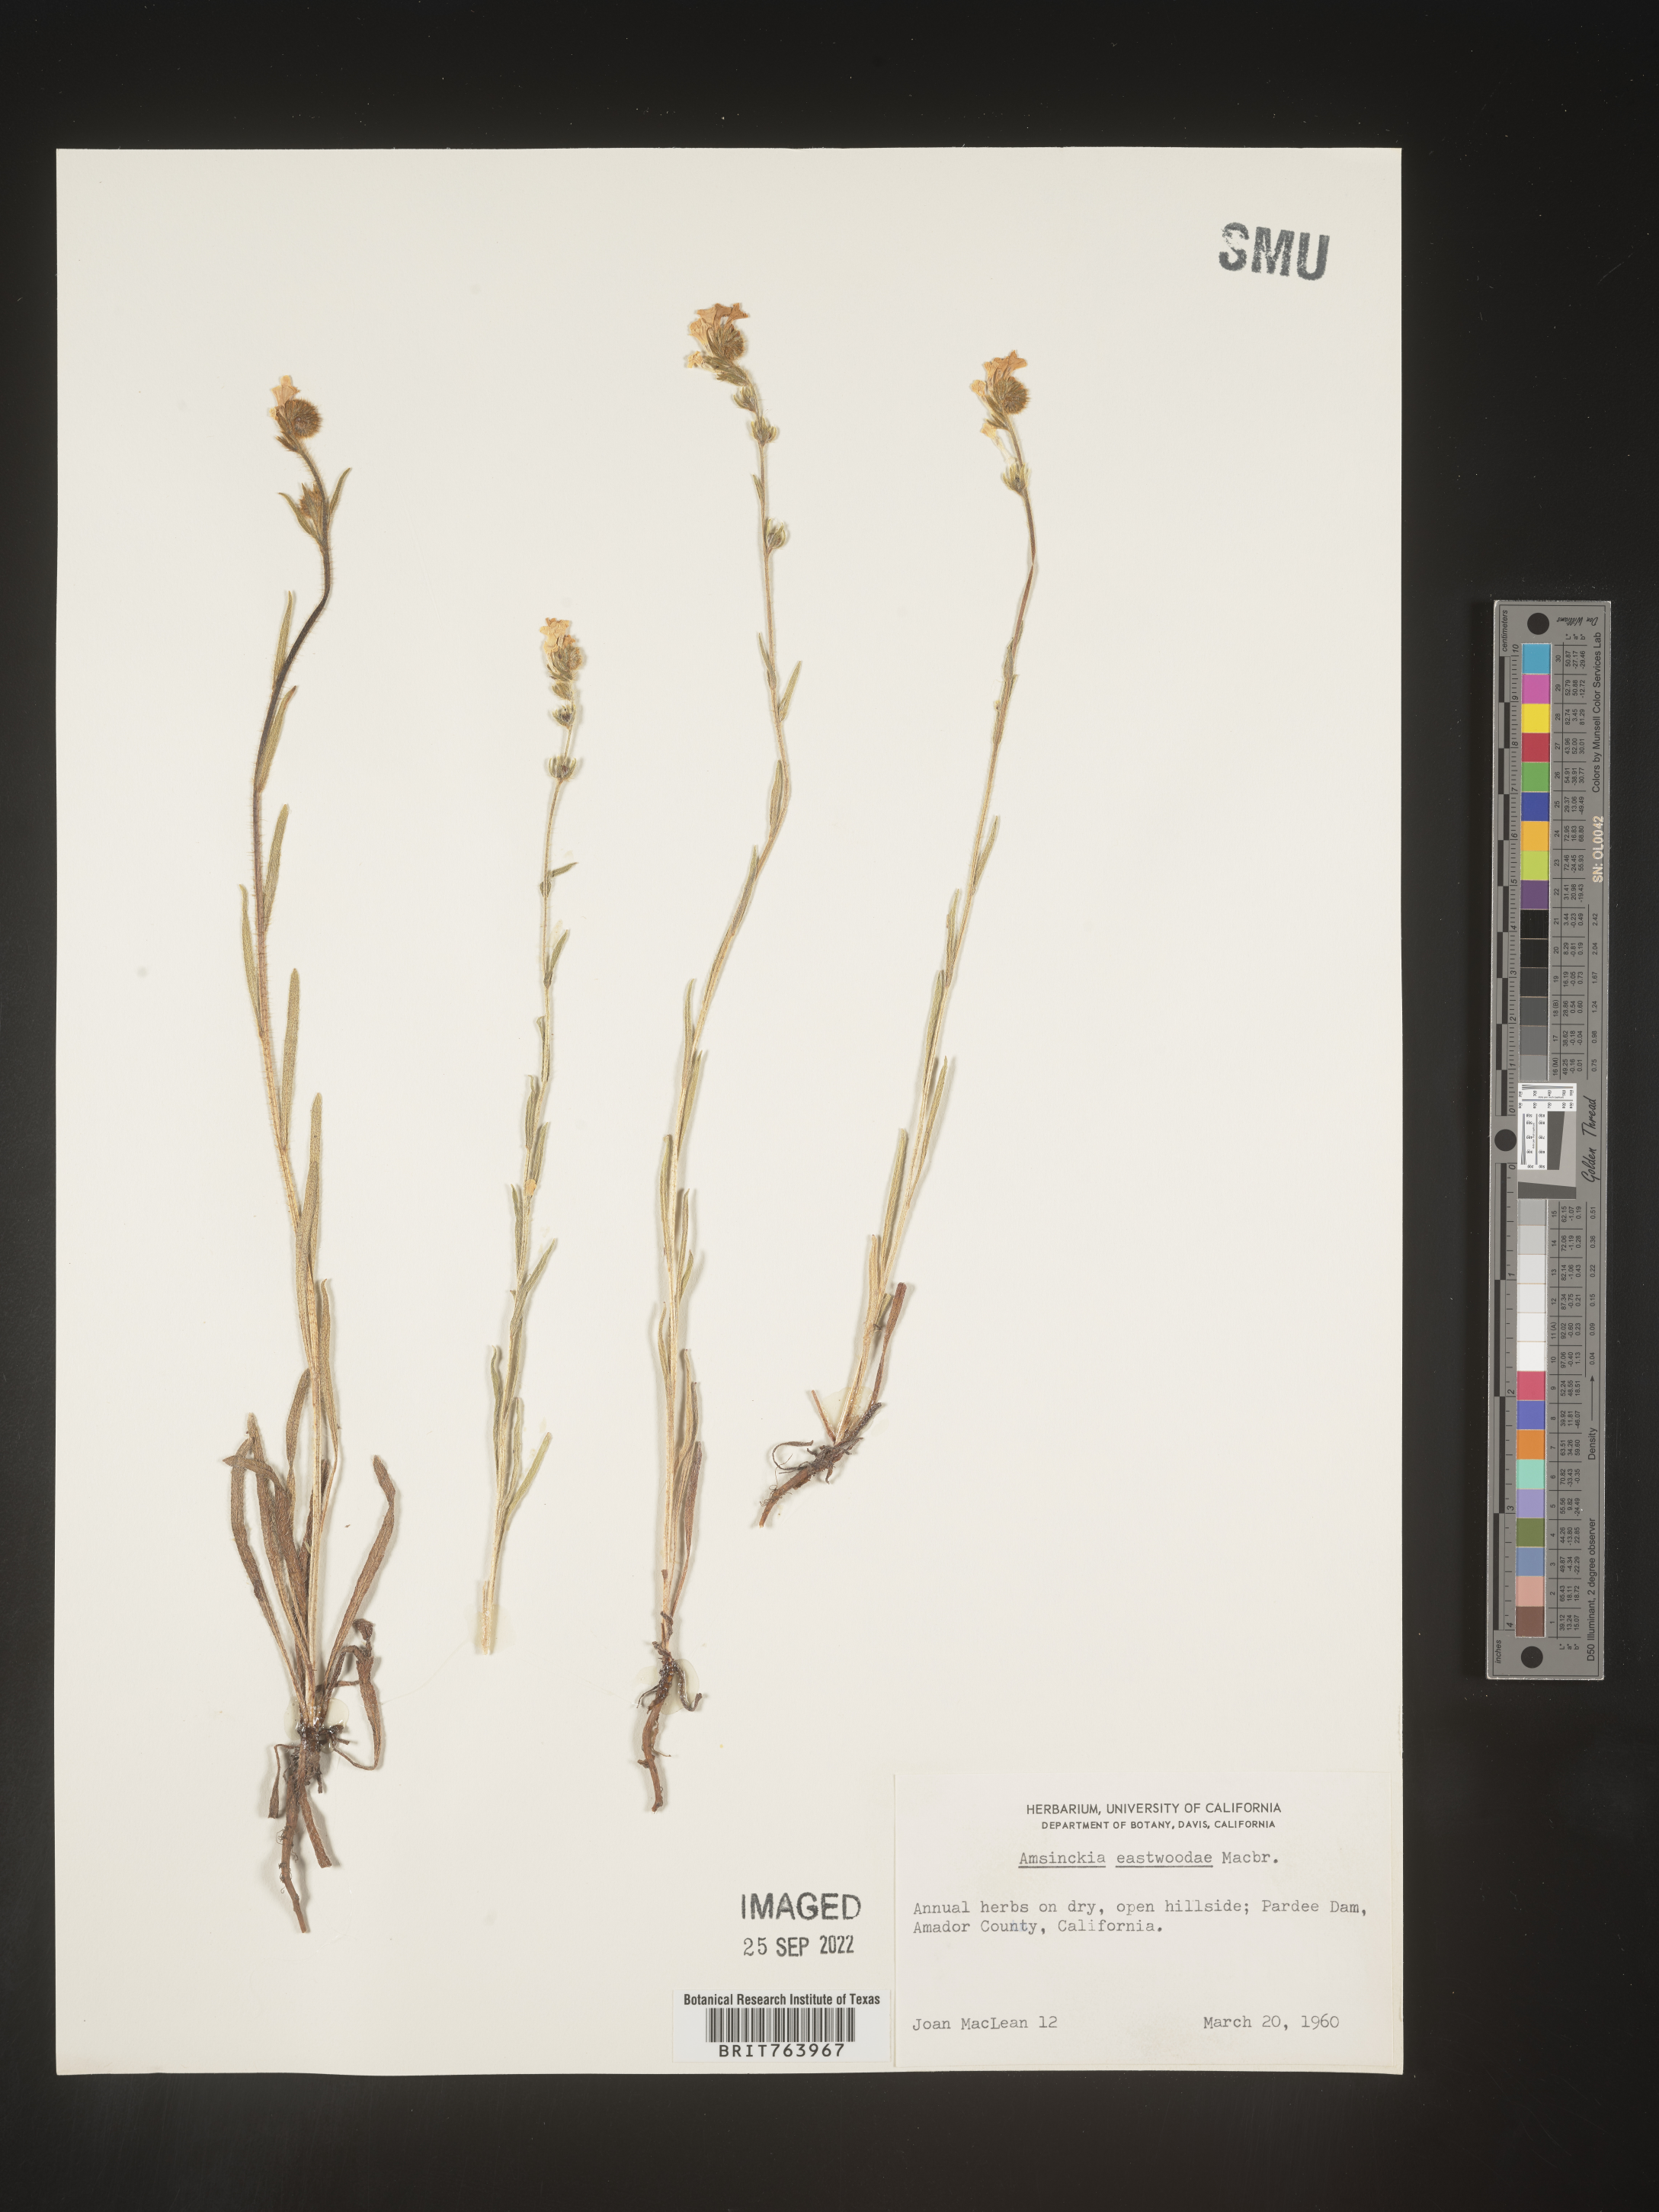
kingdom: Plantae
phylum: Tracheophyta
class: Magnoliopsida
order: Boraginales
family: Boraginaceae
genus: Amsinckia
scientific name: Amsinckia
